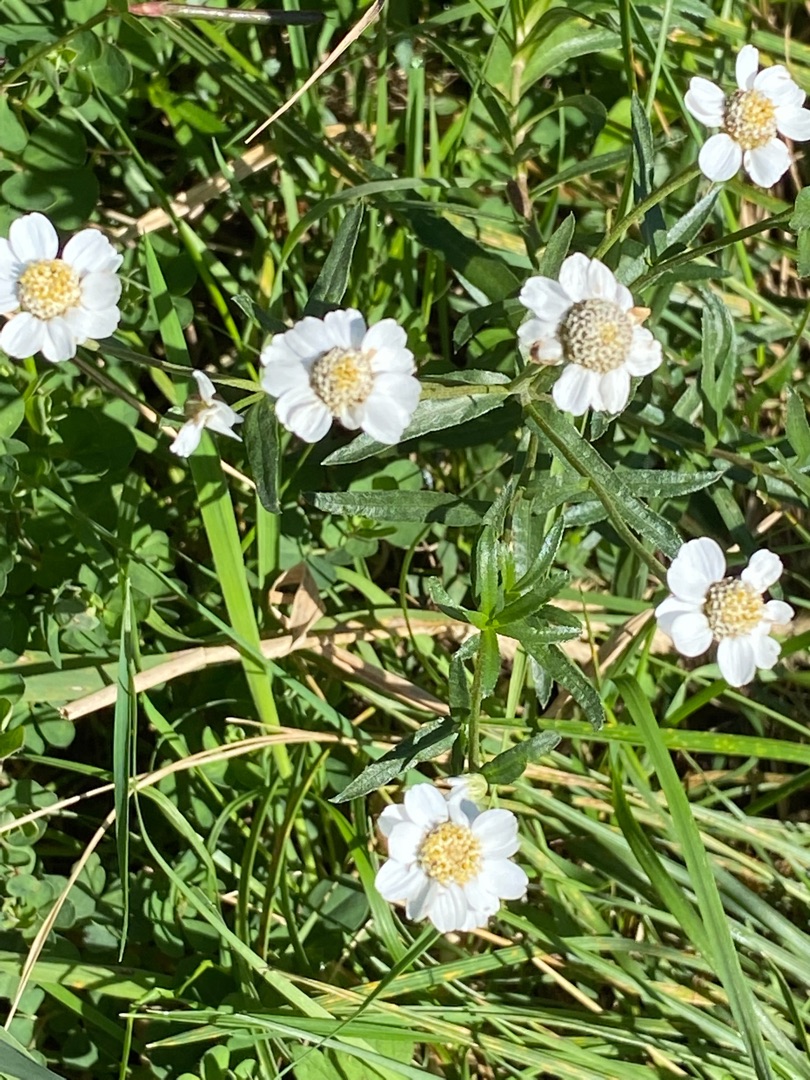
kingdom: Plantae
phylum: Tracheophyta
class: Magnoliopsida
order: Asterales
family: Asteraceae
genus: Achillea
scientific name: Achillea ptarmica
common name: Nyse-røllike
